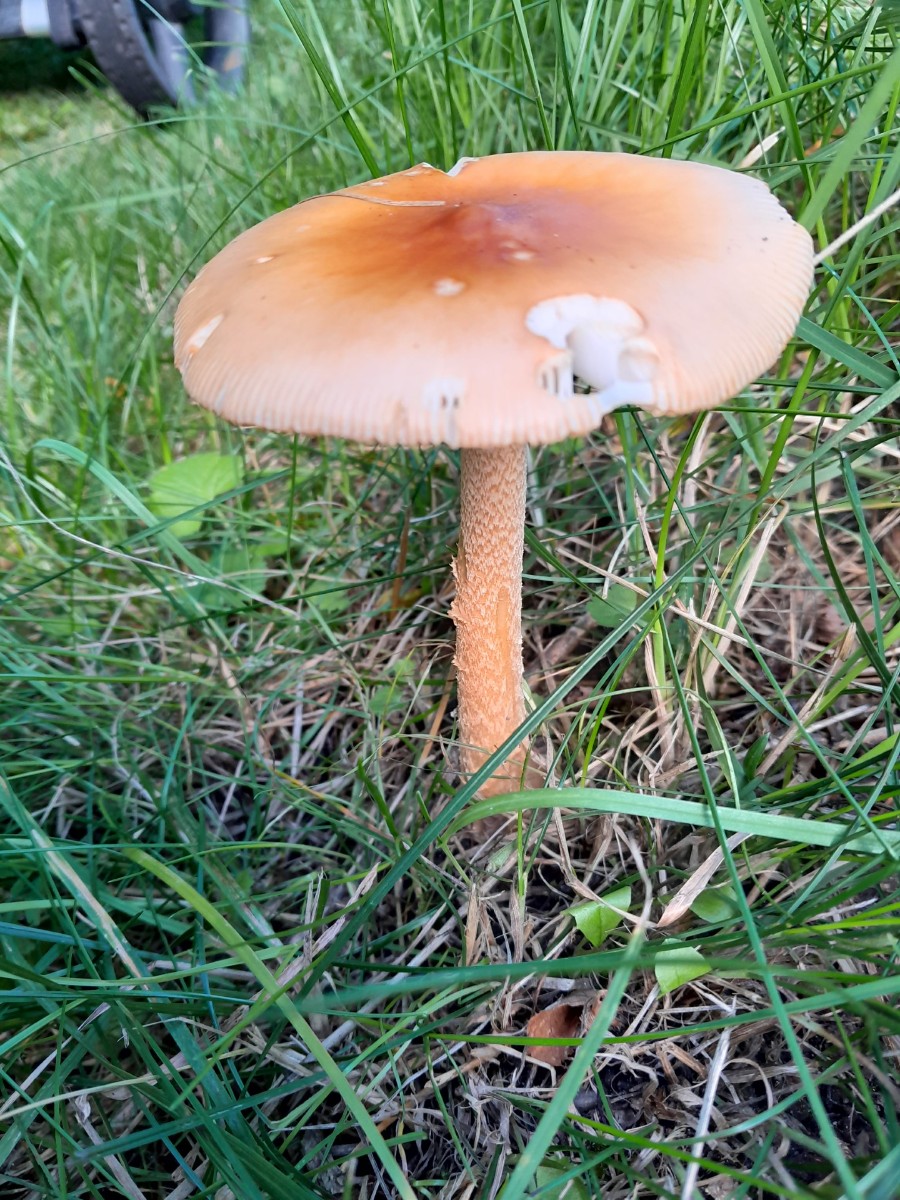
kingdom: Fungi
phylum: Basidiomycota
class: Agaricomycetes
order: Agaricales
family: Amanitaceae
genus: Amanita
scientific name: Amanita crocea
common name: gylden kam-fluesvamp
